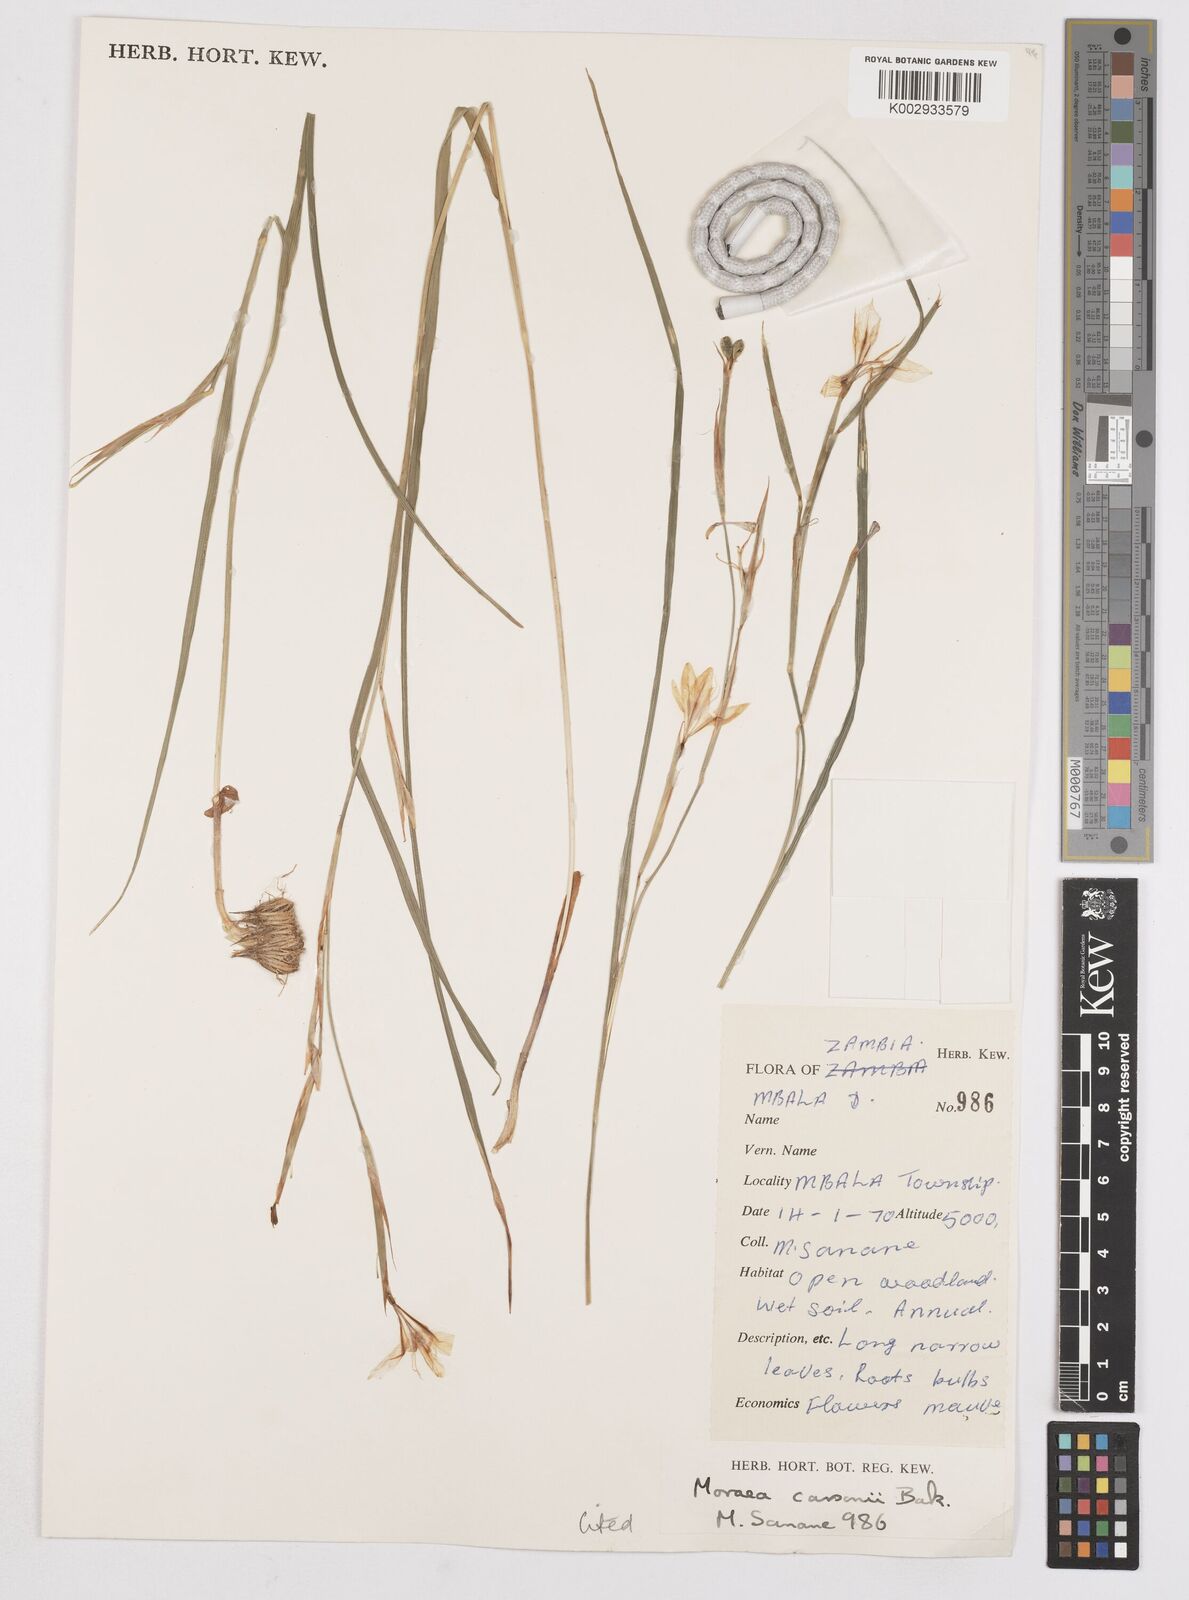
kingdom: Plantae
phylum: Tracheophyta
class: Liliopsida
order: Asparagales
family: Iridaceae
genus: Moraea
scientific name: Moraea carsonii
